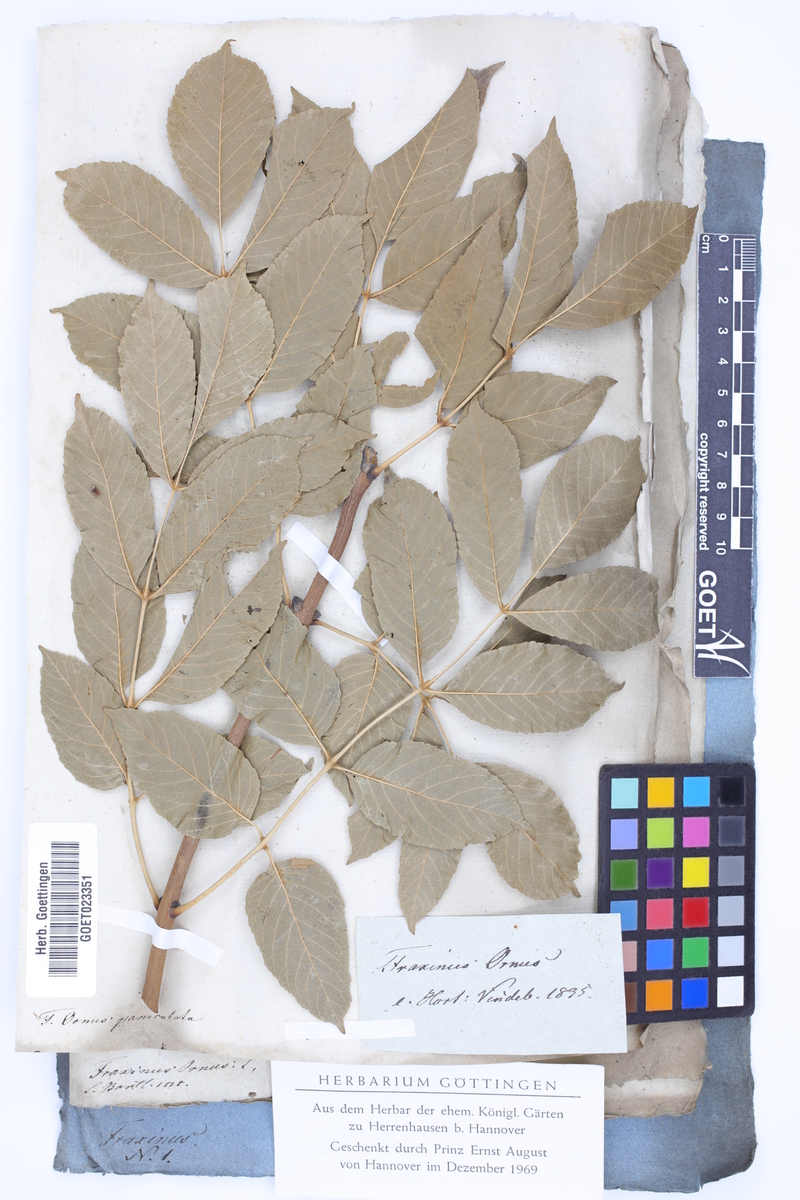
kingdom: Plantae
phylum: Tracheophyta
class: Magnoliopsida
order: Lamiales
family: Oleaceae
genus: Fraxinus
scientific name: Fraxinus ornus
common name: Manna ash
